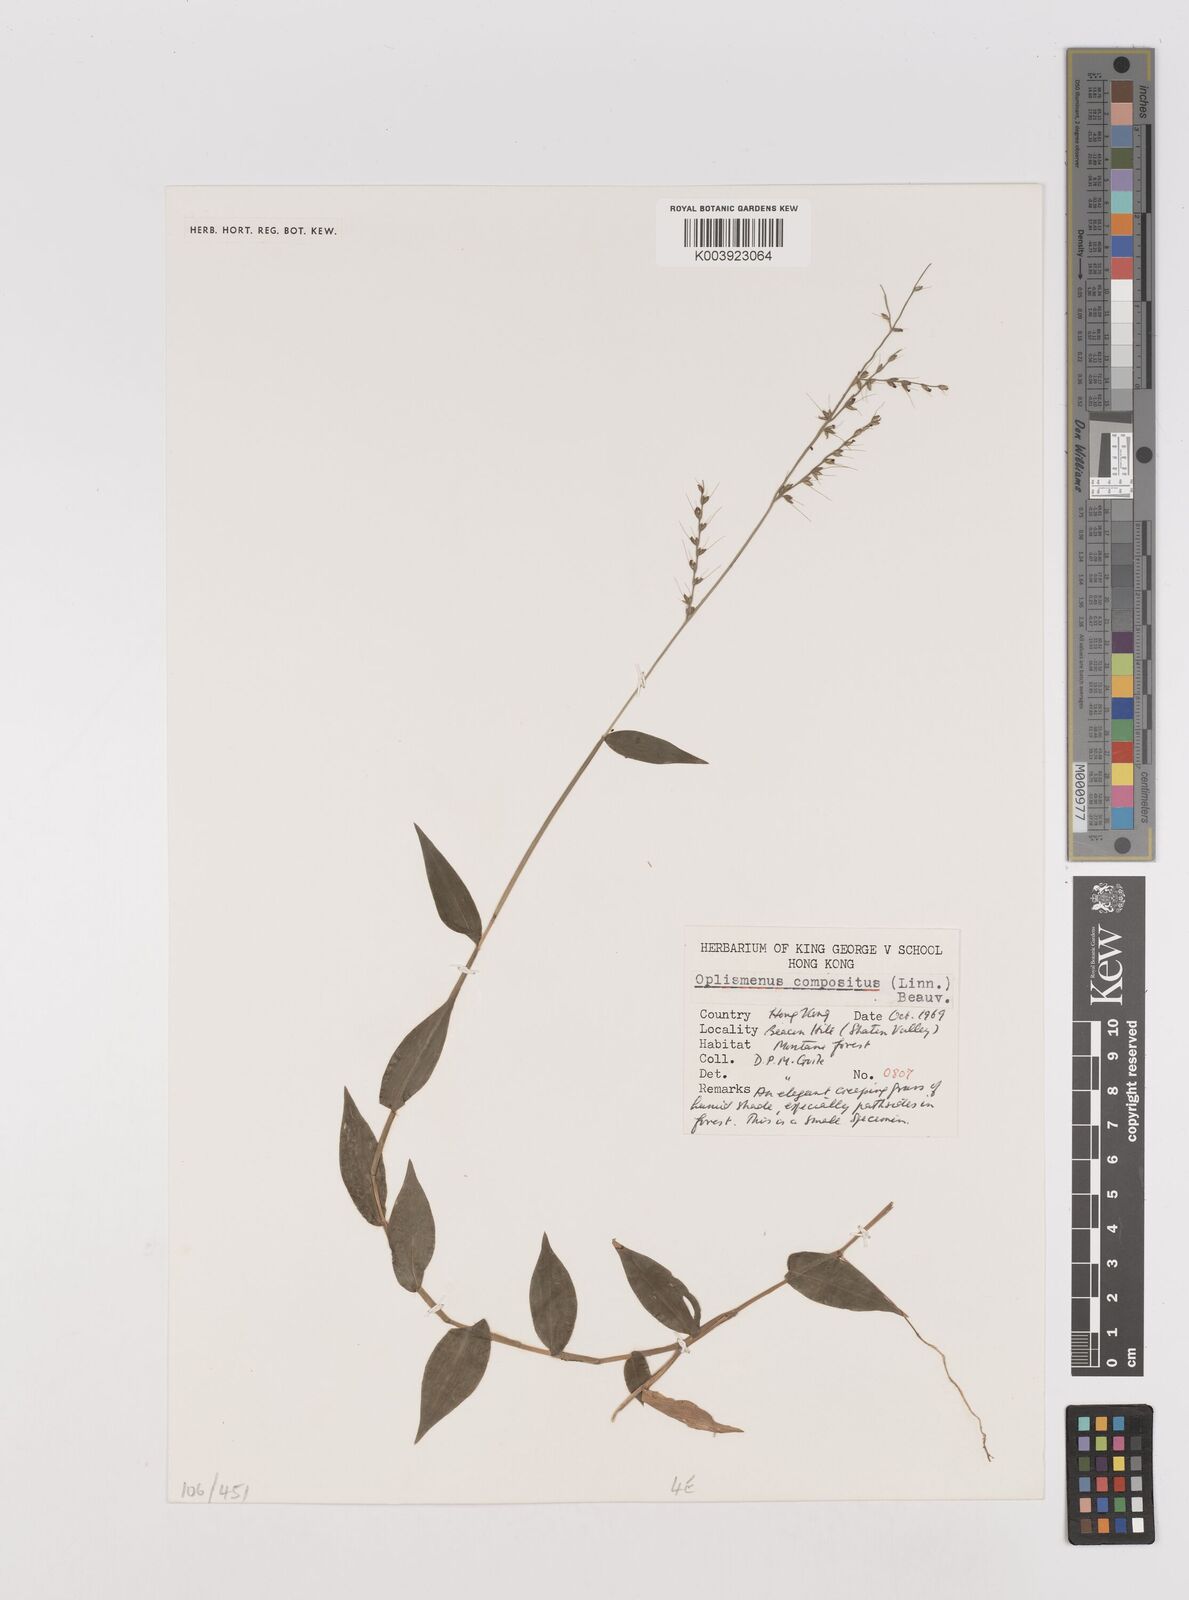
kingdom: Plantae
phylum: Tracheophyta
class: Liliopsida
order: Poales
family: Poaceae
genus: Oplismenus
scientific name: Oplismenus compositus
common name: Running mountain grass
